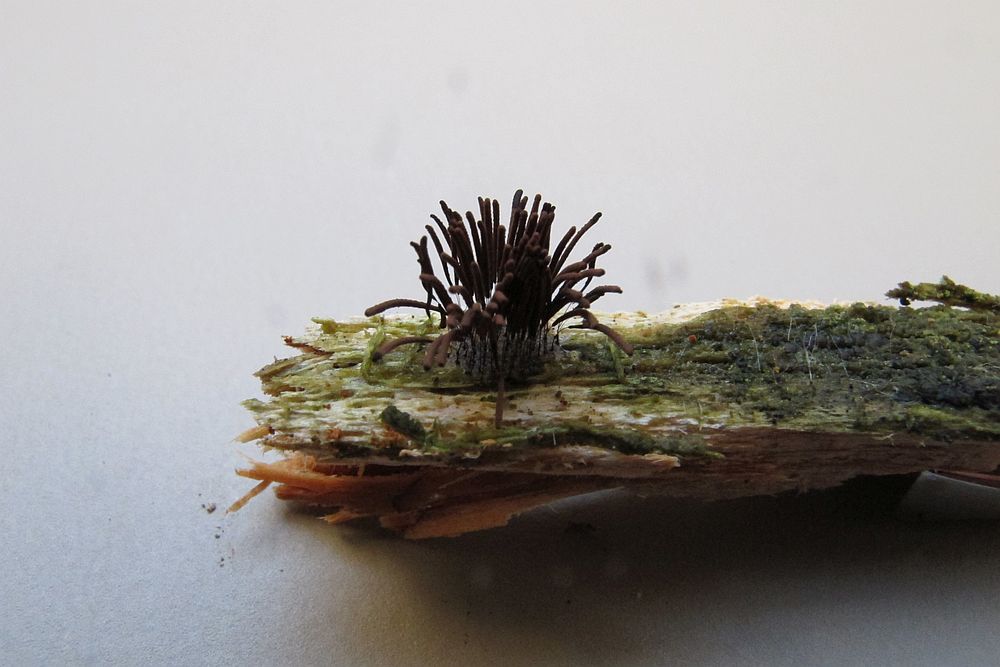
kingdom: Protozoa
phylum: Mycetozoa
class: Myxomycetes
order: Stemonitidales
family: Stemonitidaceae
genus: Stemonitis
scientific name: Stemonitis axifera
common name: rødbrun støvkølle
